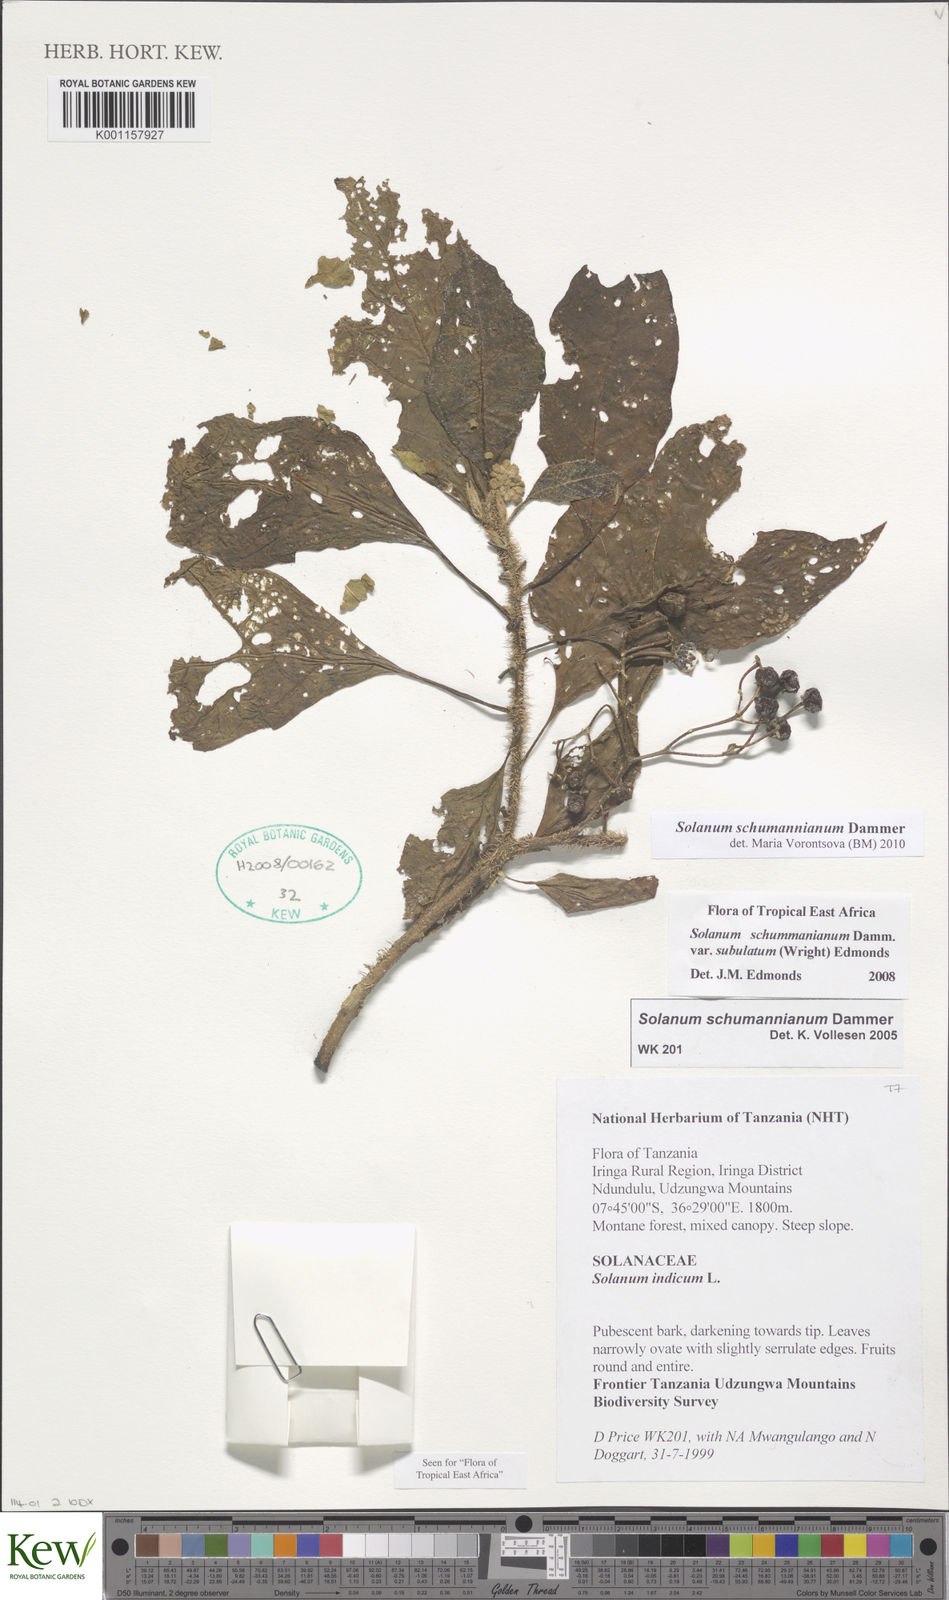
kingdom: Plantae
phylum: Tracheophyta
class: Magnoliopsida
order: Solanales
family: Solanaceae
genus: Solanum
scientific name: Solanum schumannianum
